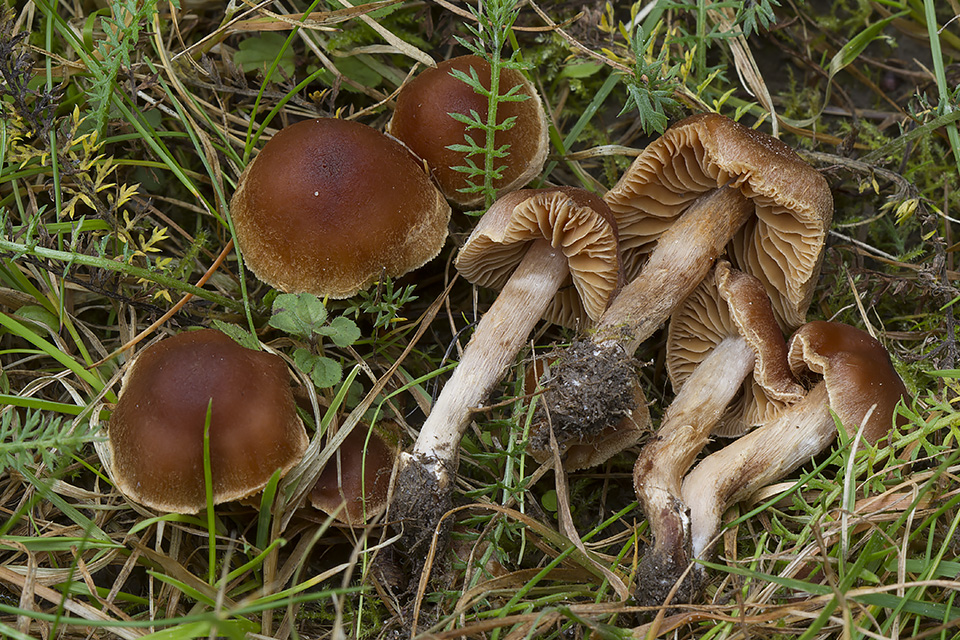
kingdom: Fungi
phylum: Basidiomycota
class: Agaricomycetes
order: Agaricales
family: Cortinariaceae
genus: Cortinarius
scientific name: Cortinarius fuscogracilescens
